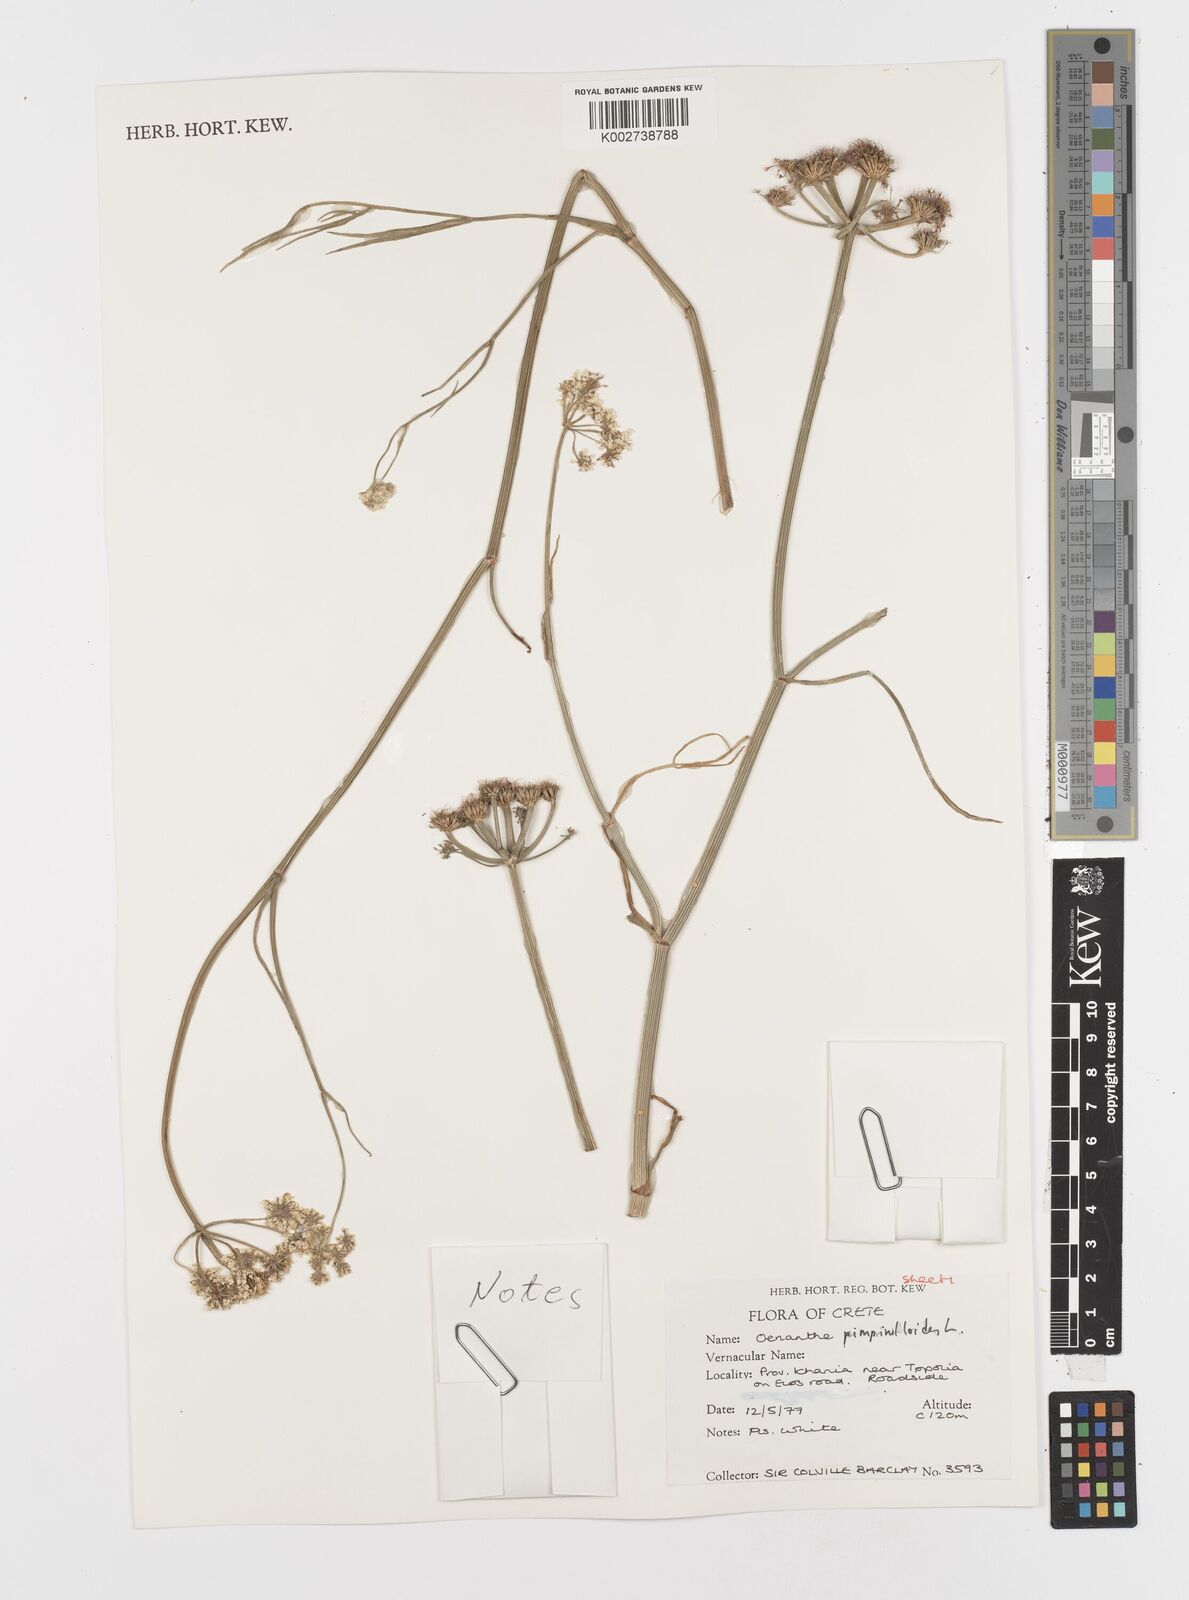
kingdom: Plantae
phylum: Tracheophyta
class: Magnoliopsida
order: Apiales
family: Apiaceae
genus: Oenanthe
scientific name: Oenanthe pimpinelloides
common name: Corky-fruited water-dropwort
